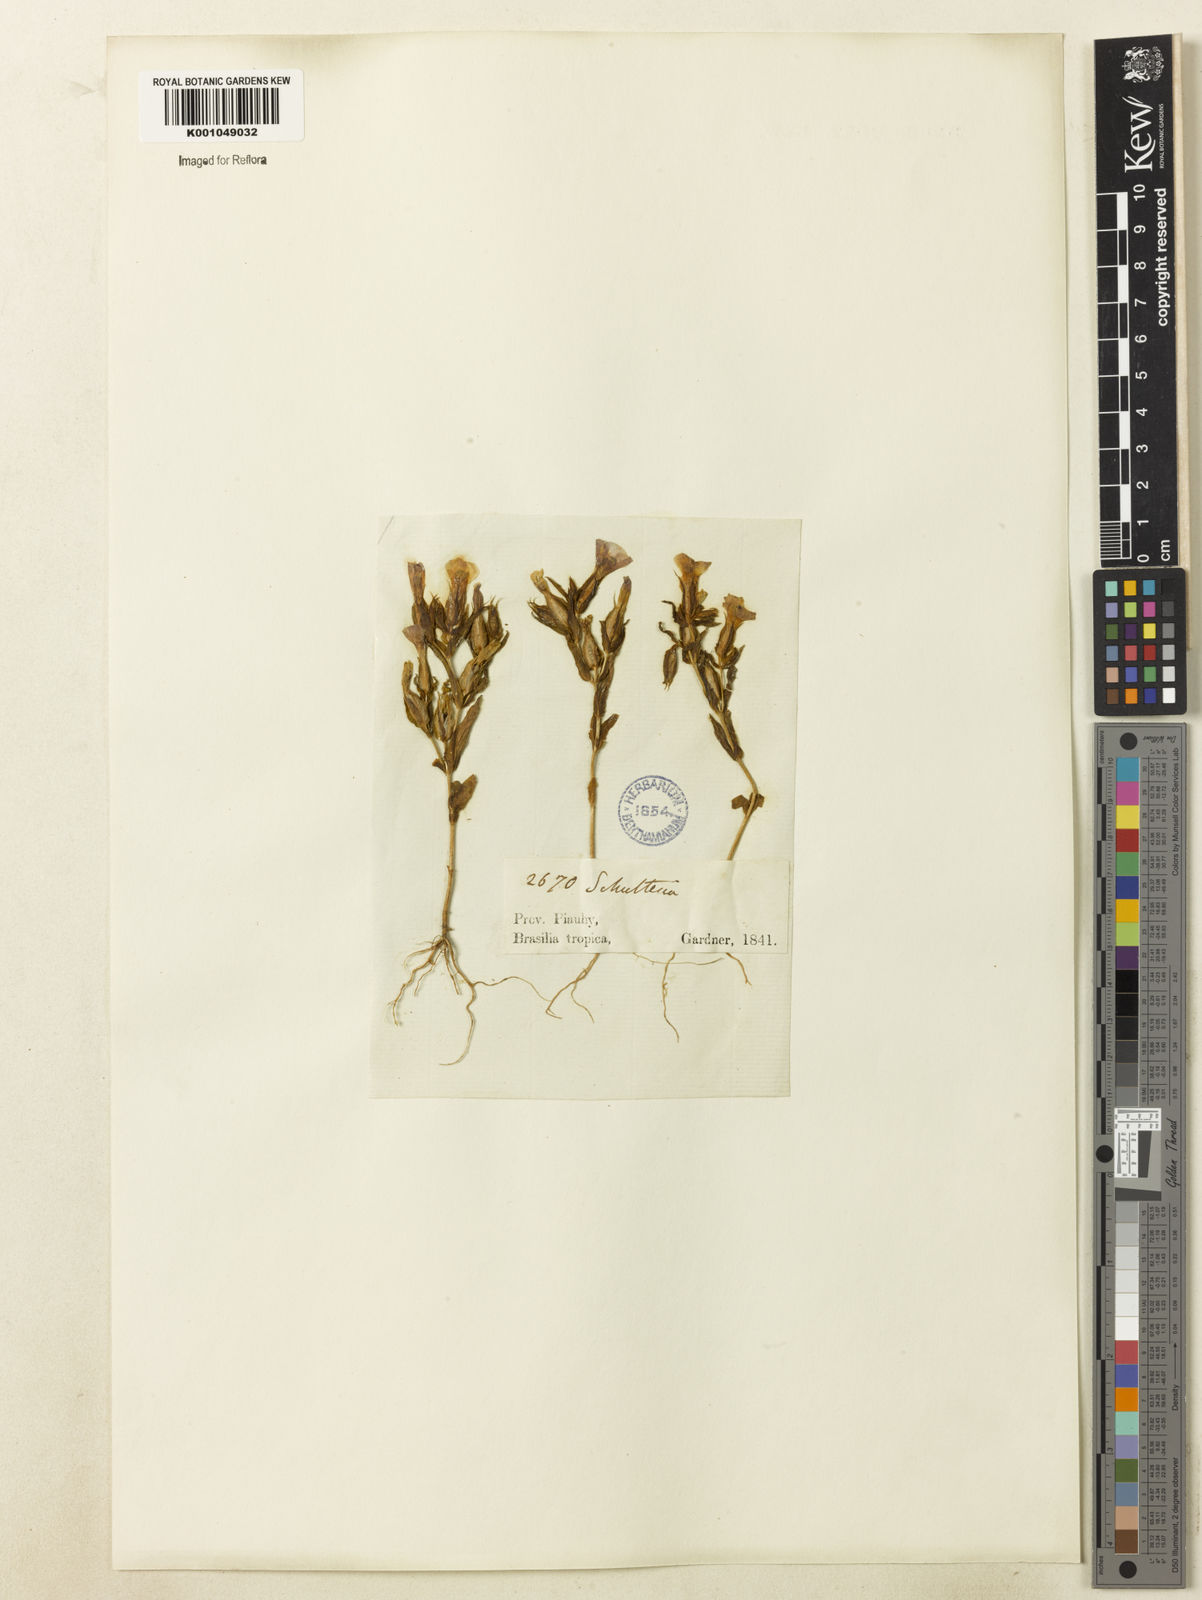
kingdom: Plantae
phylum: Tracheophyta
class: Magnoliopsida
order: Gentianales
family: Gentianaceae
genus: Schultesia
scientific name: Schultesia guianensis
